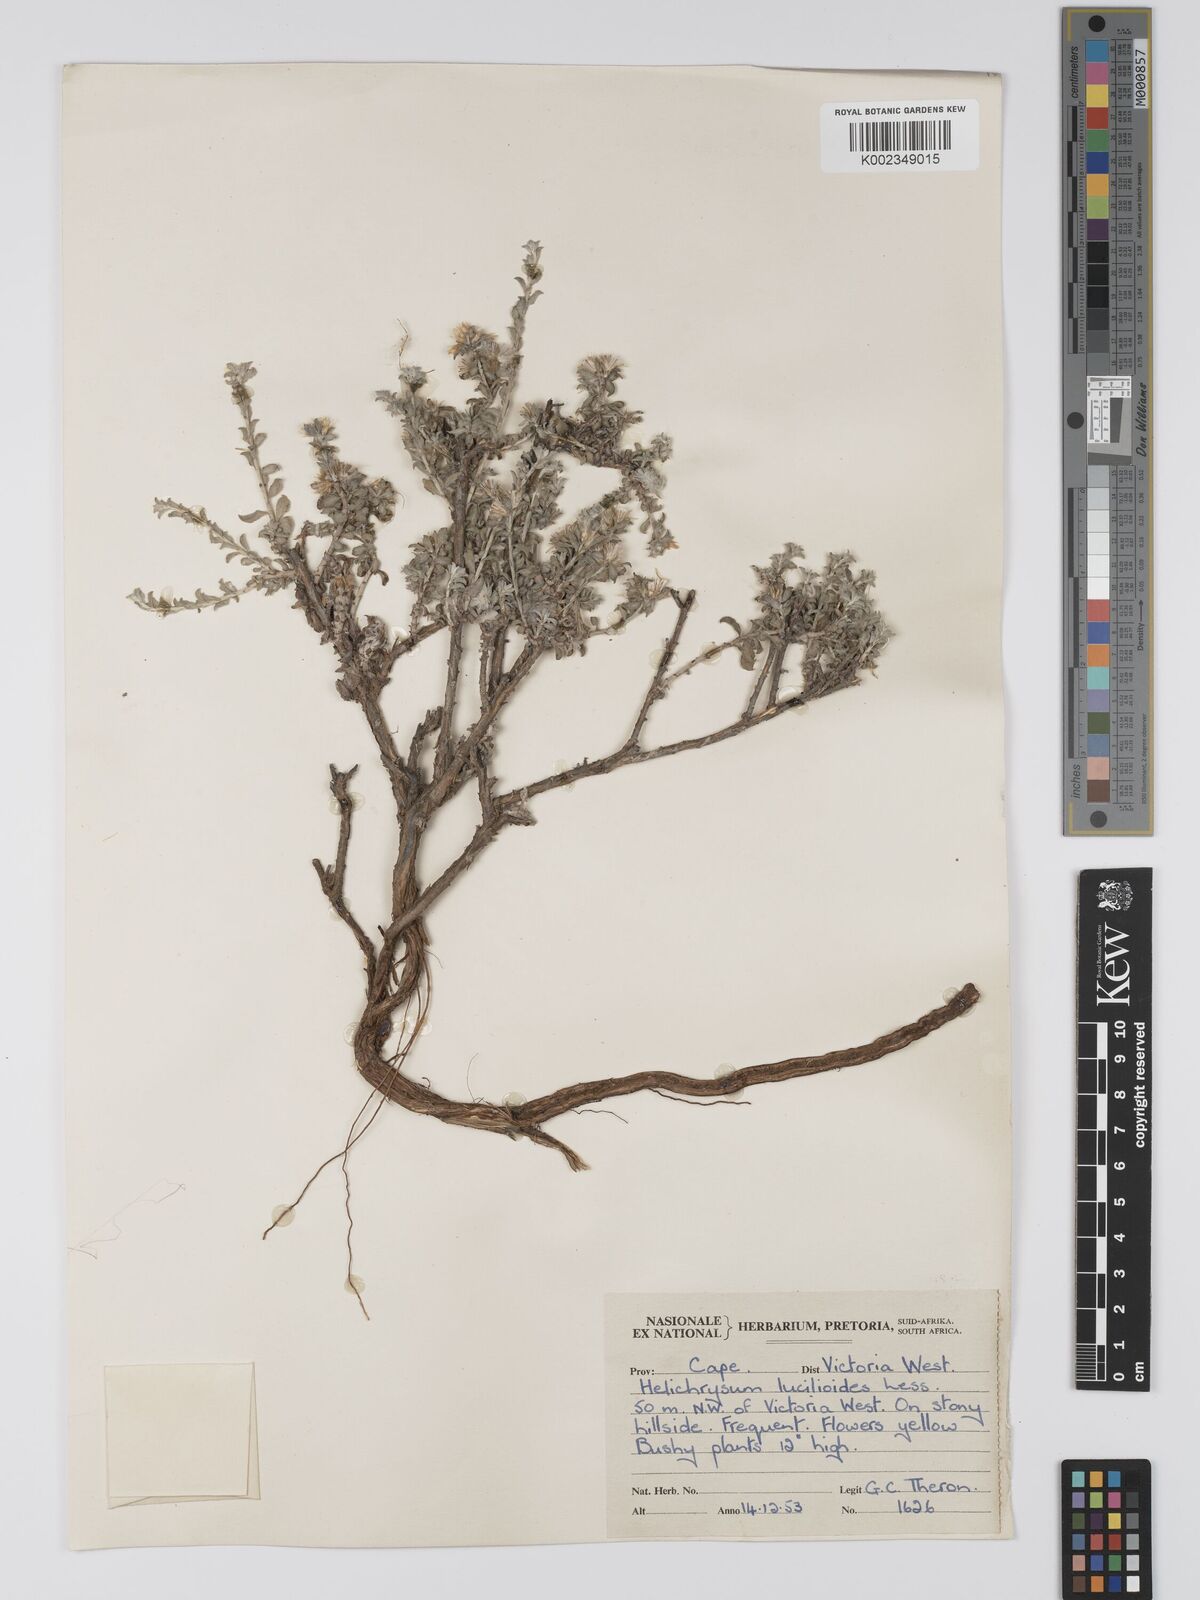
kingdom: Plantae
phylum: Tracheophyta
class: Magnoliopsida
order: Asterales
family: Asteraceae
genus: Helichrysum
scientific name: Helichrysum lucilioides
